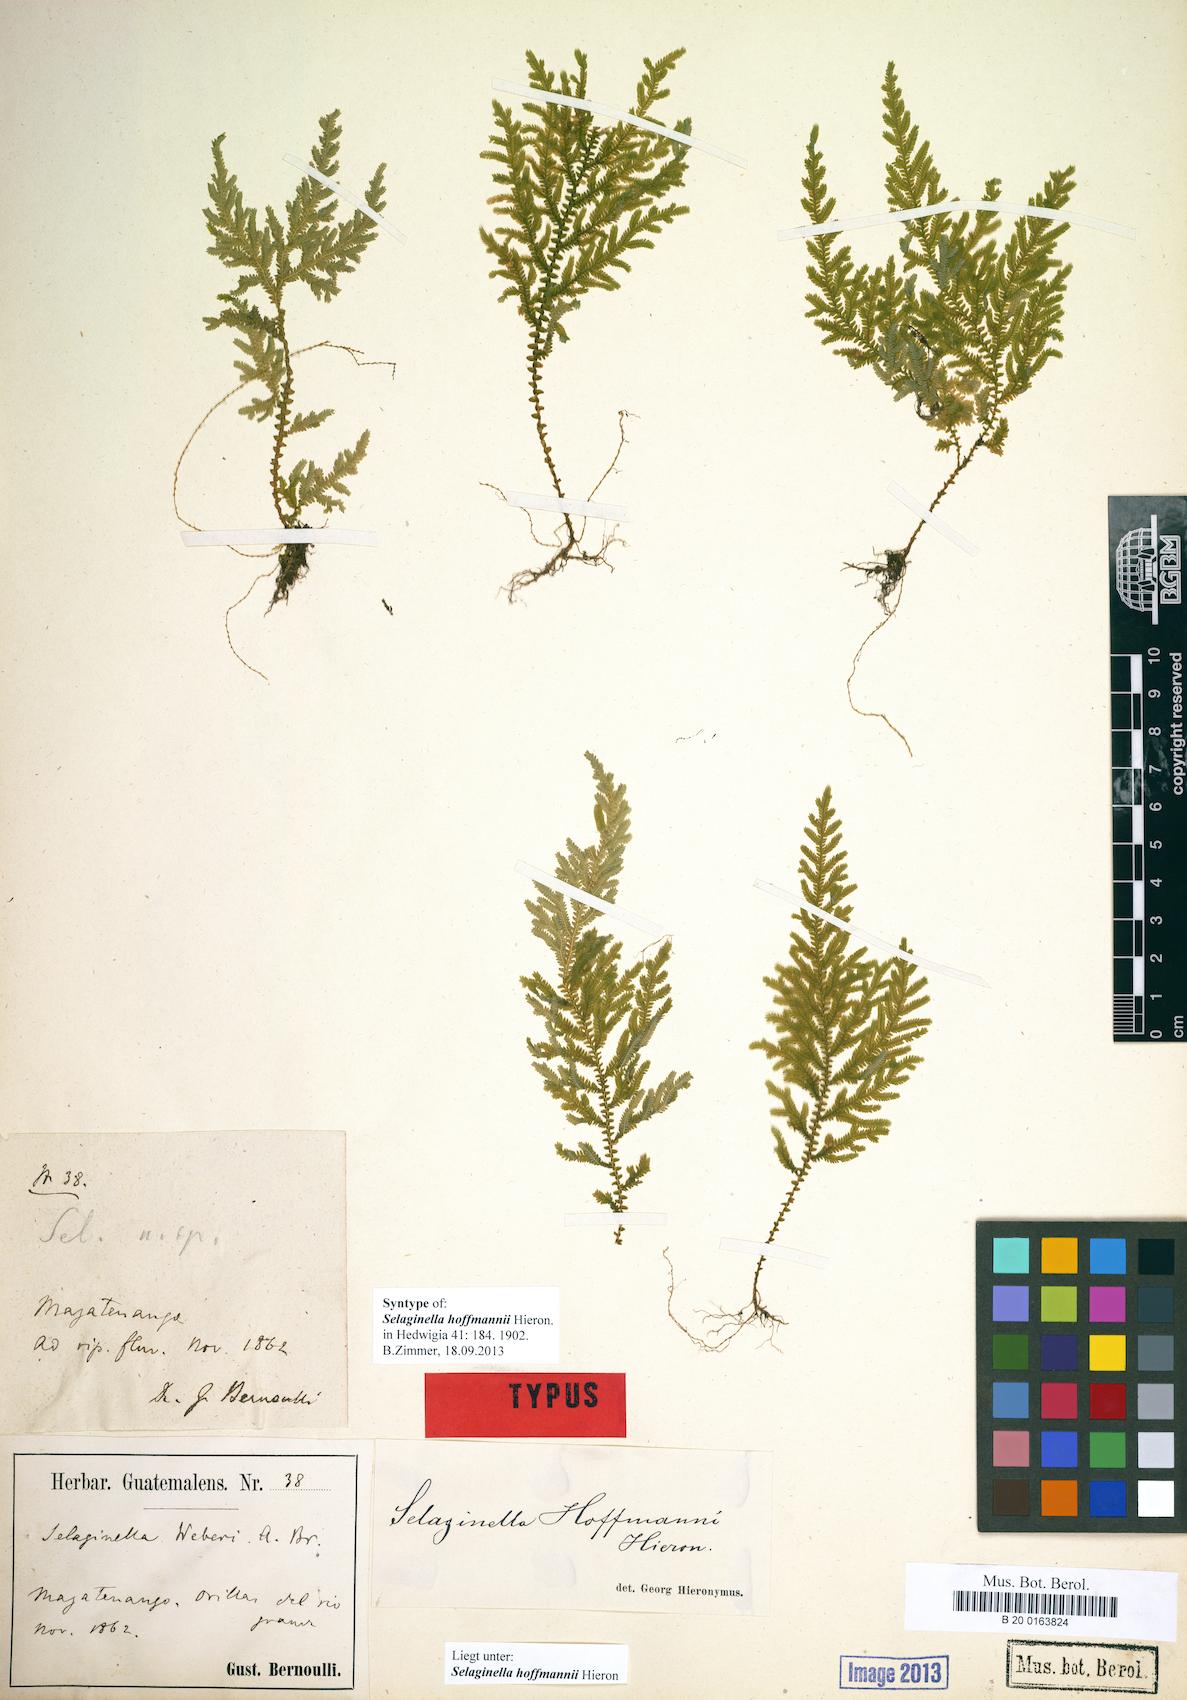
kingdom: Plantae
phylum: Tracheophyta
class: Lycopodiopsida
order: Selaginellales
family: Selaginellaceae
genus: Selaginella
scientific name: Selaginella hoffmannii
